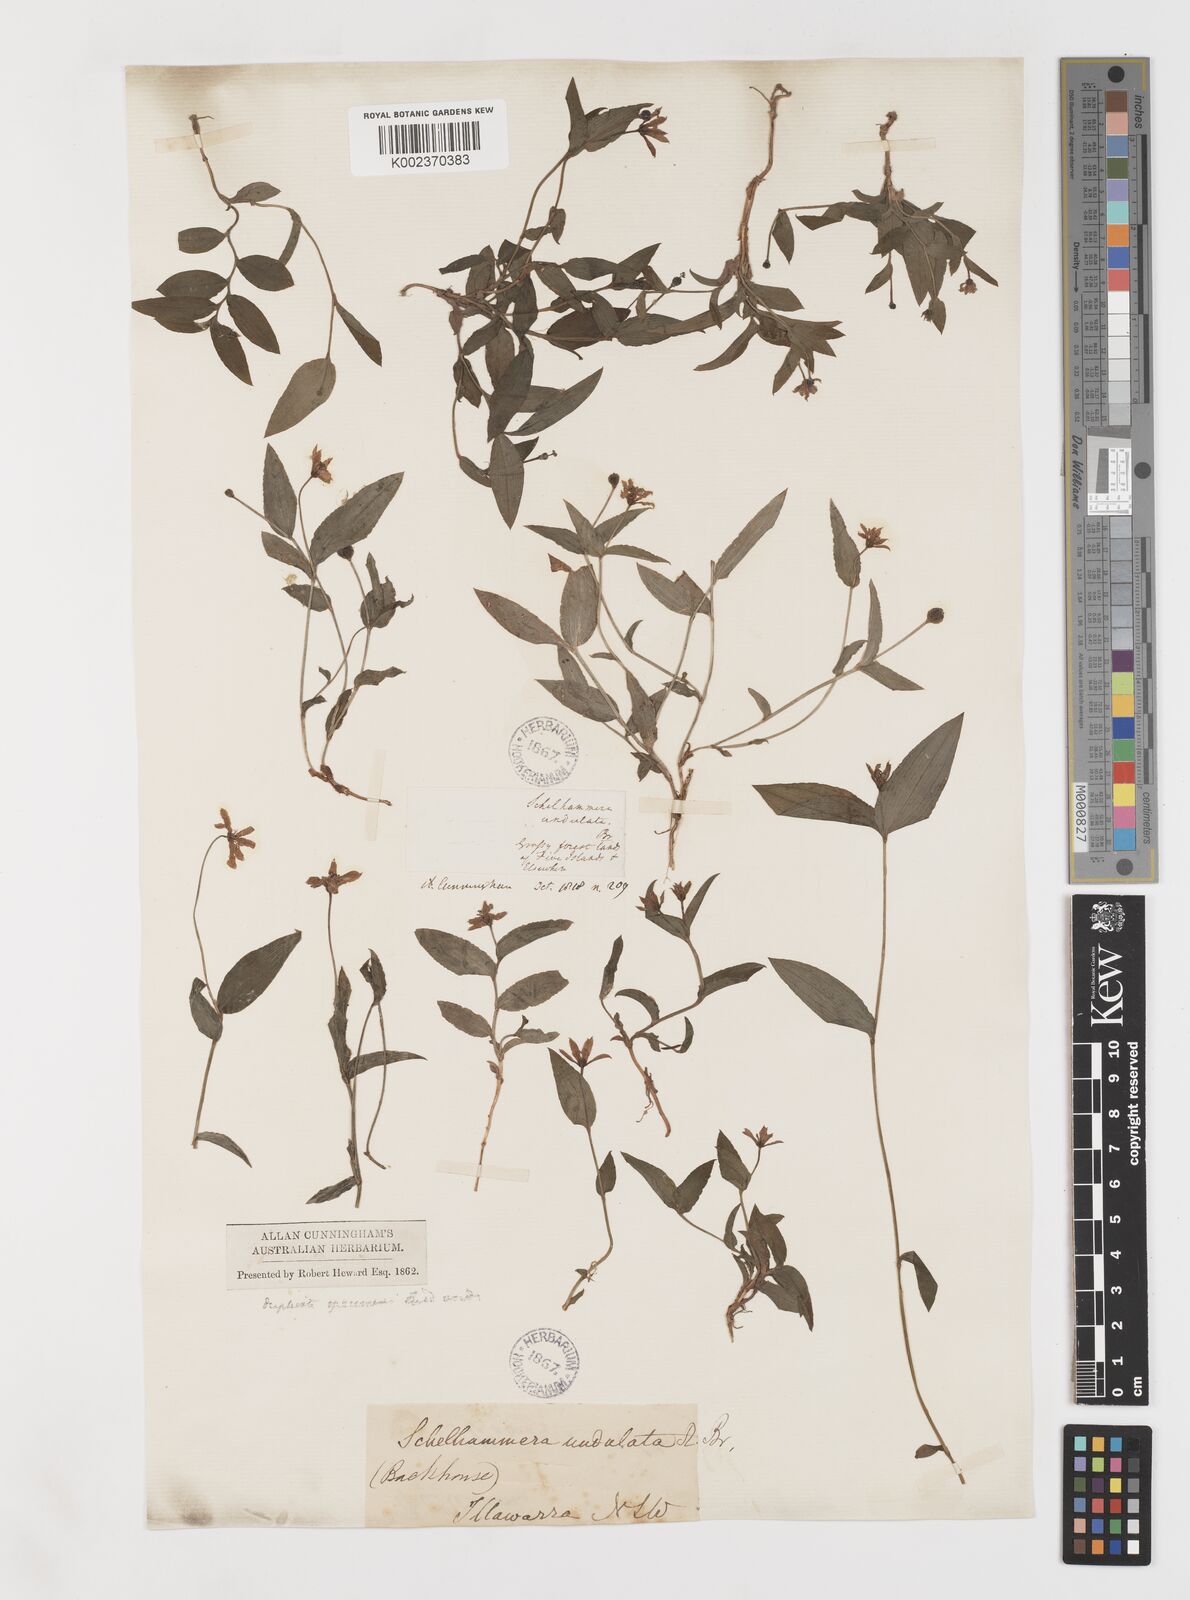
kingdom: Plantae
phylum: Tracheophyta
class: Liliopsida
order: Liliales
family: Colchicaceae
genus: Schelhammera
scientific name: Schelhammera undulata
